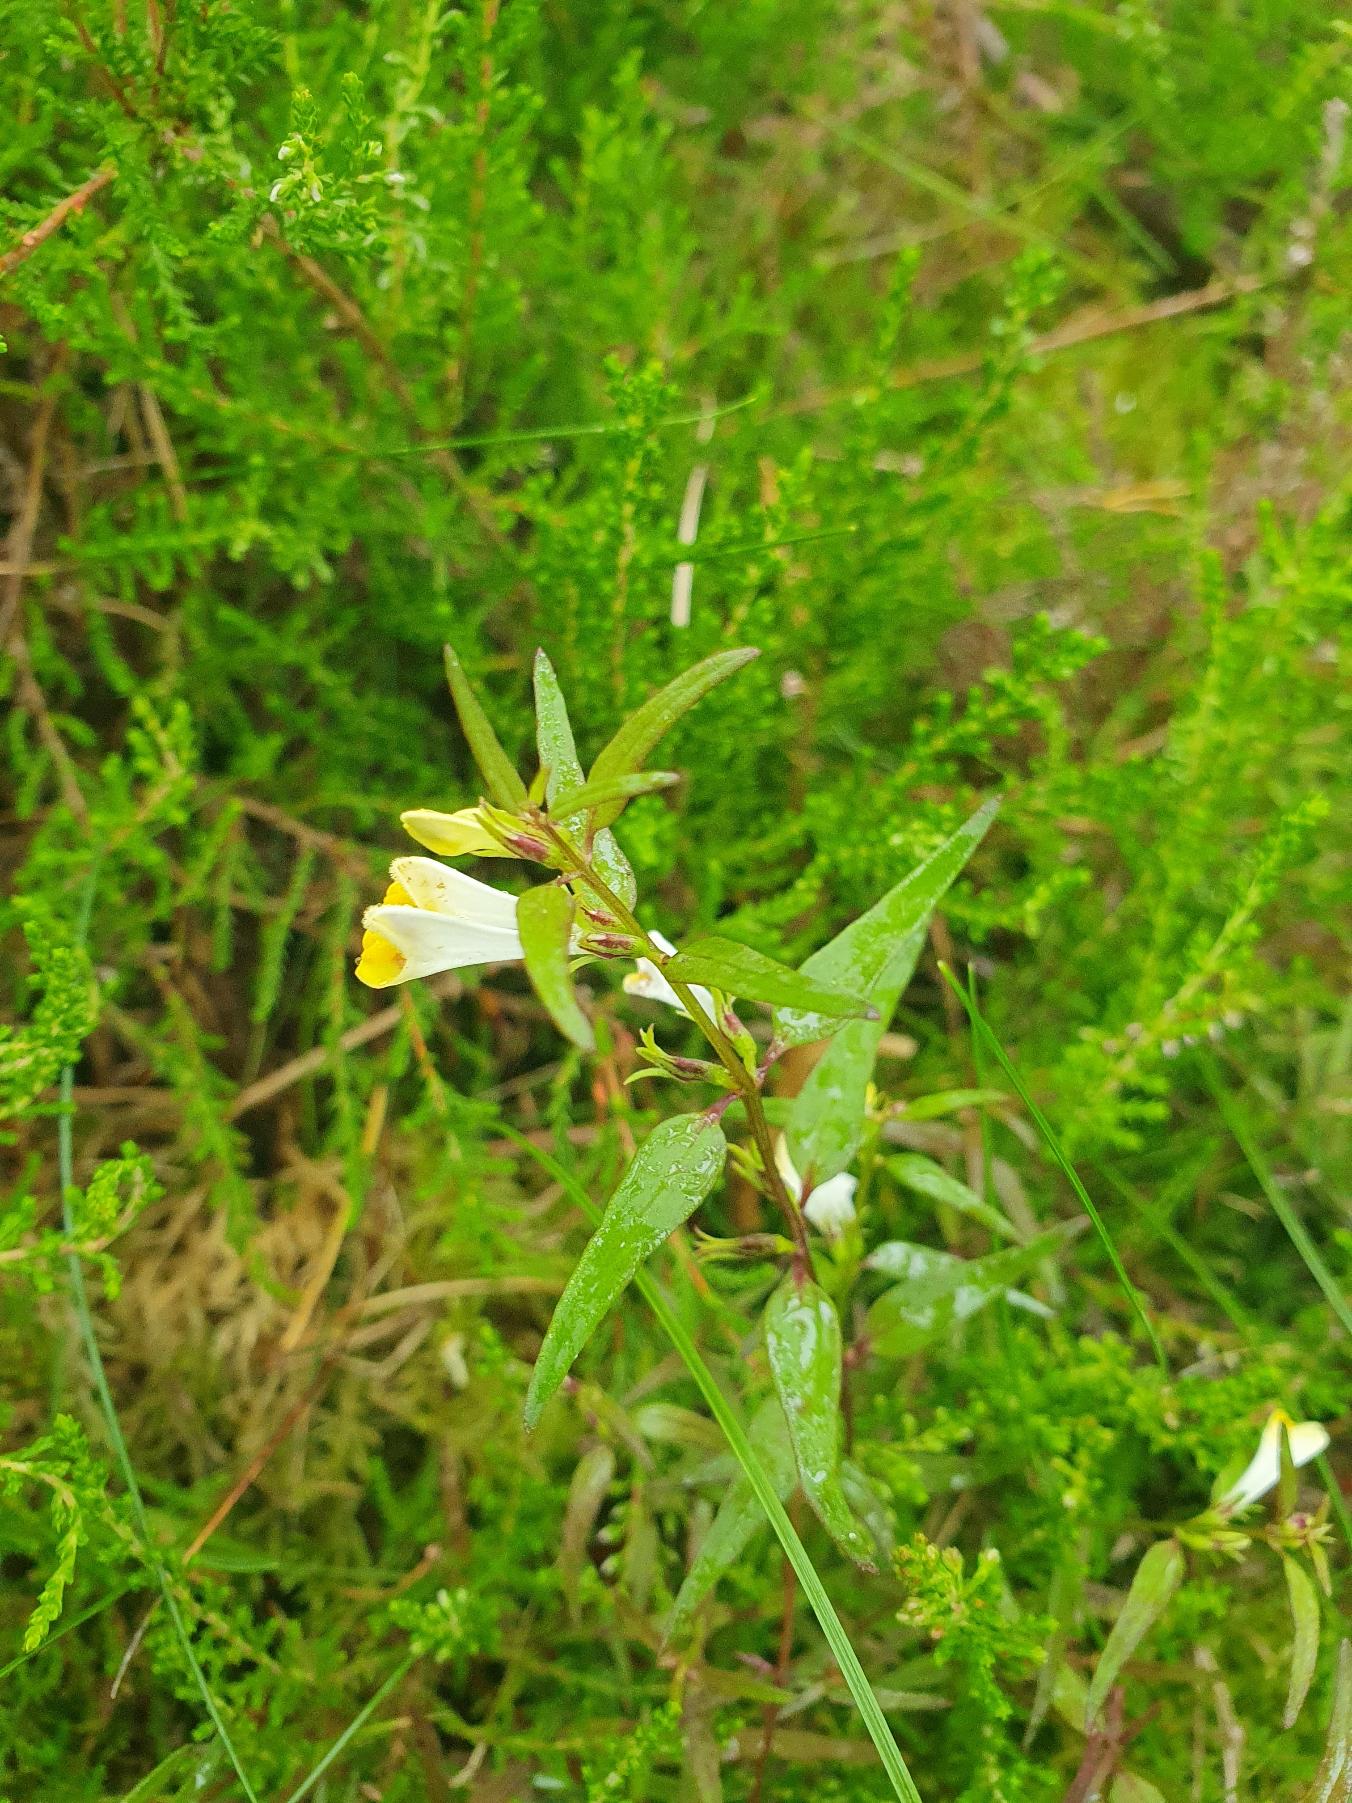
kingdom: Plantae
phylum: Tracheophyta
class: Magnoliopsida
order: Lamiales
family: Orobanchaceae
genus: Melampyrum
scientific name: Melampyrum pratense
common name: Almindelig kohvede
